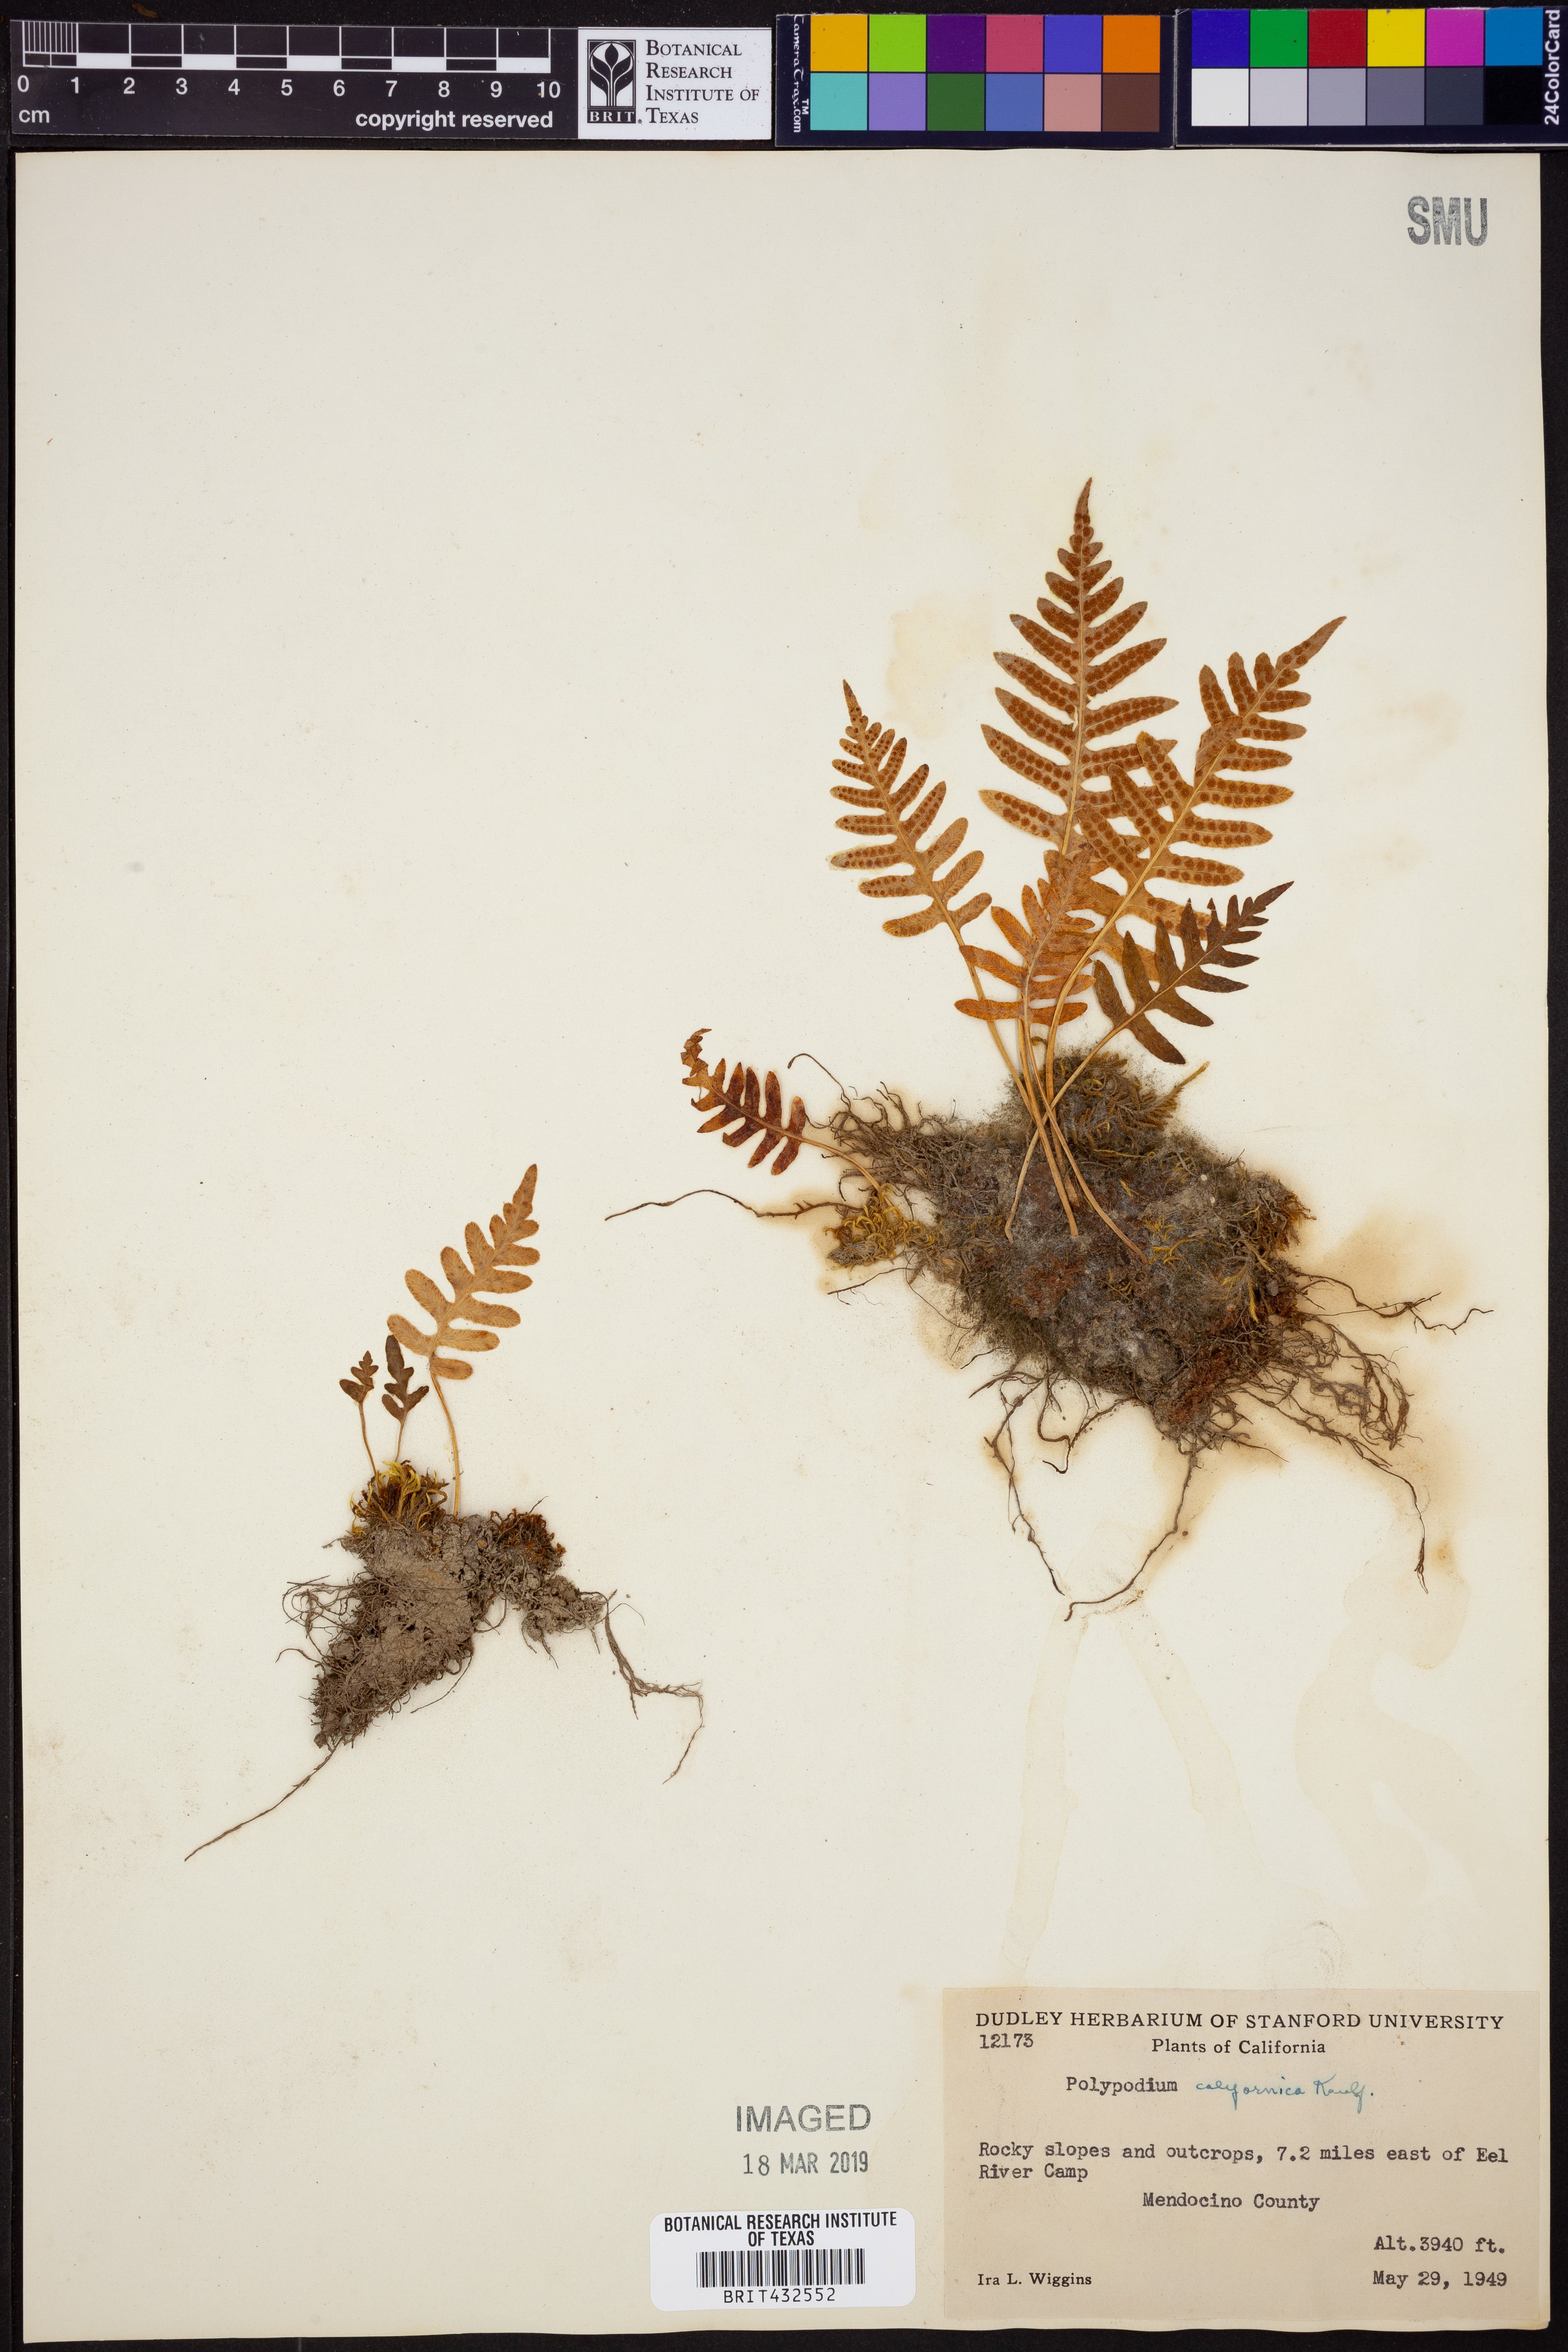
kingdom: Plantae
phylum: Tracheophyta
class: Polypodiopsida
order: Polypodiales
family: Polypodiaceae
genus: Polypodium
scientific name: Polypodium californicum
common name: California polypody
